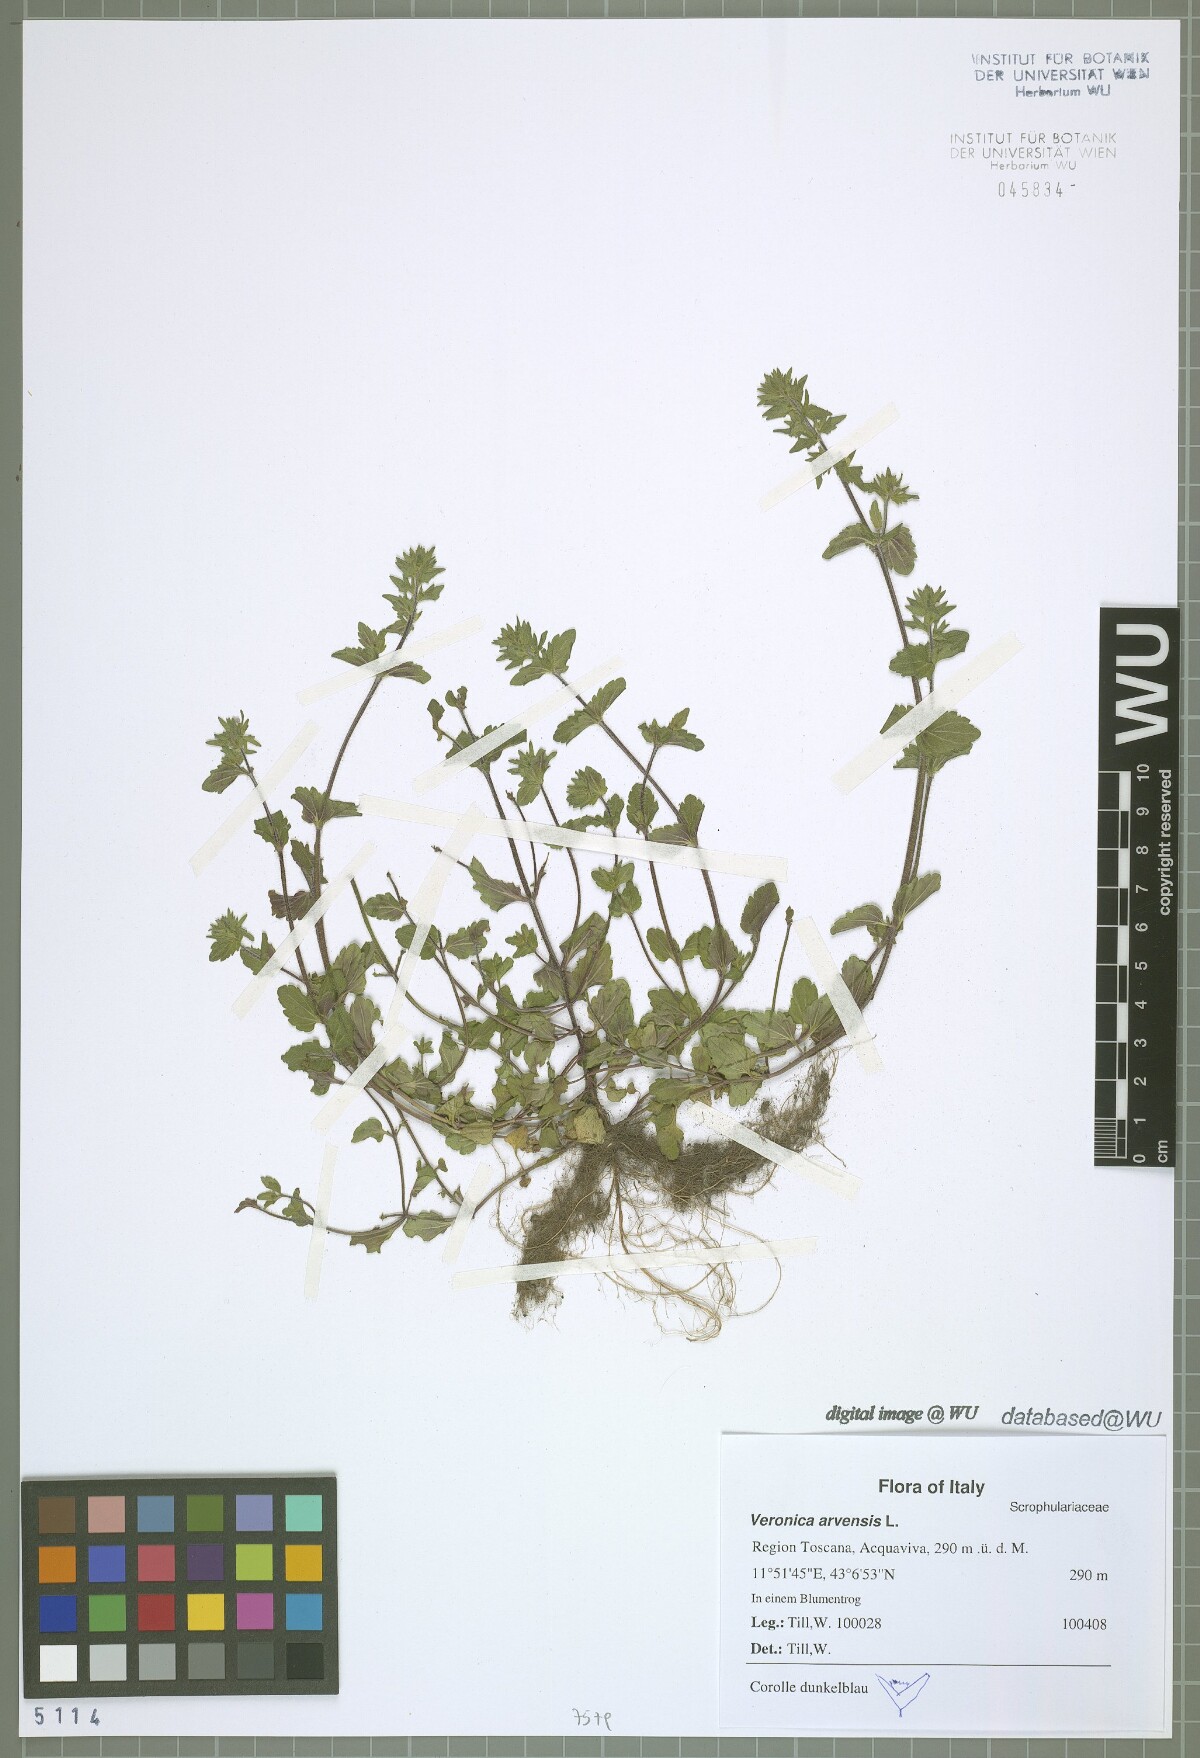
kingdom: Plantae
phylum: Tracheophyta
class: Magnoliopsida
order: Lamiales
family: Plantaginaceae
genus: Veronica
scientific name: Veronica arvensis
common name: Corn speedwell
